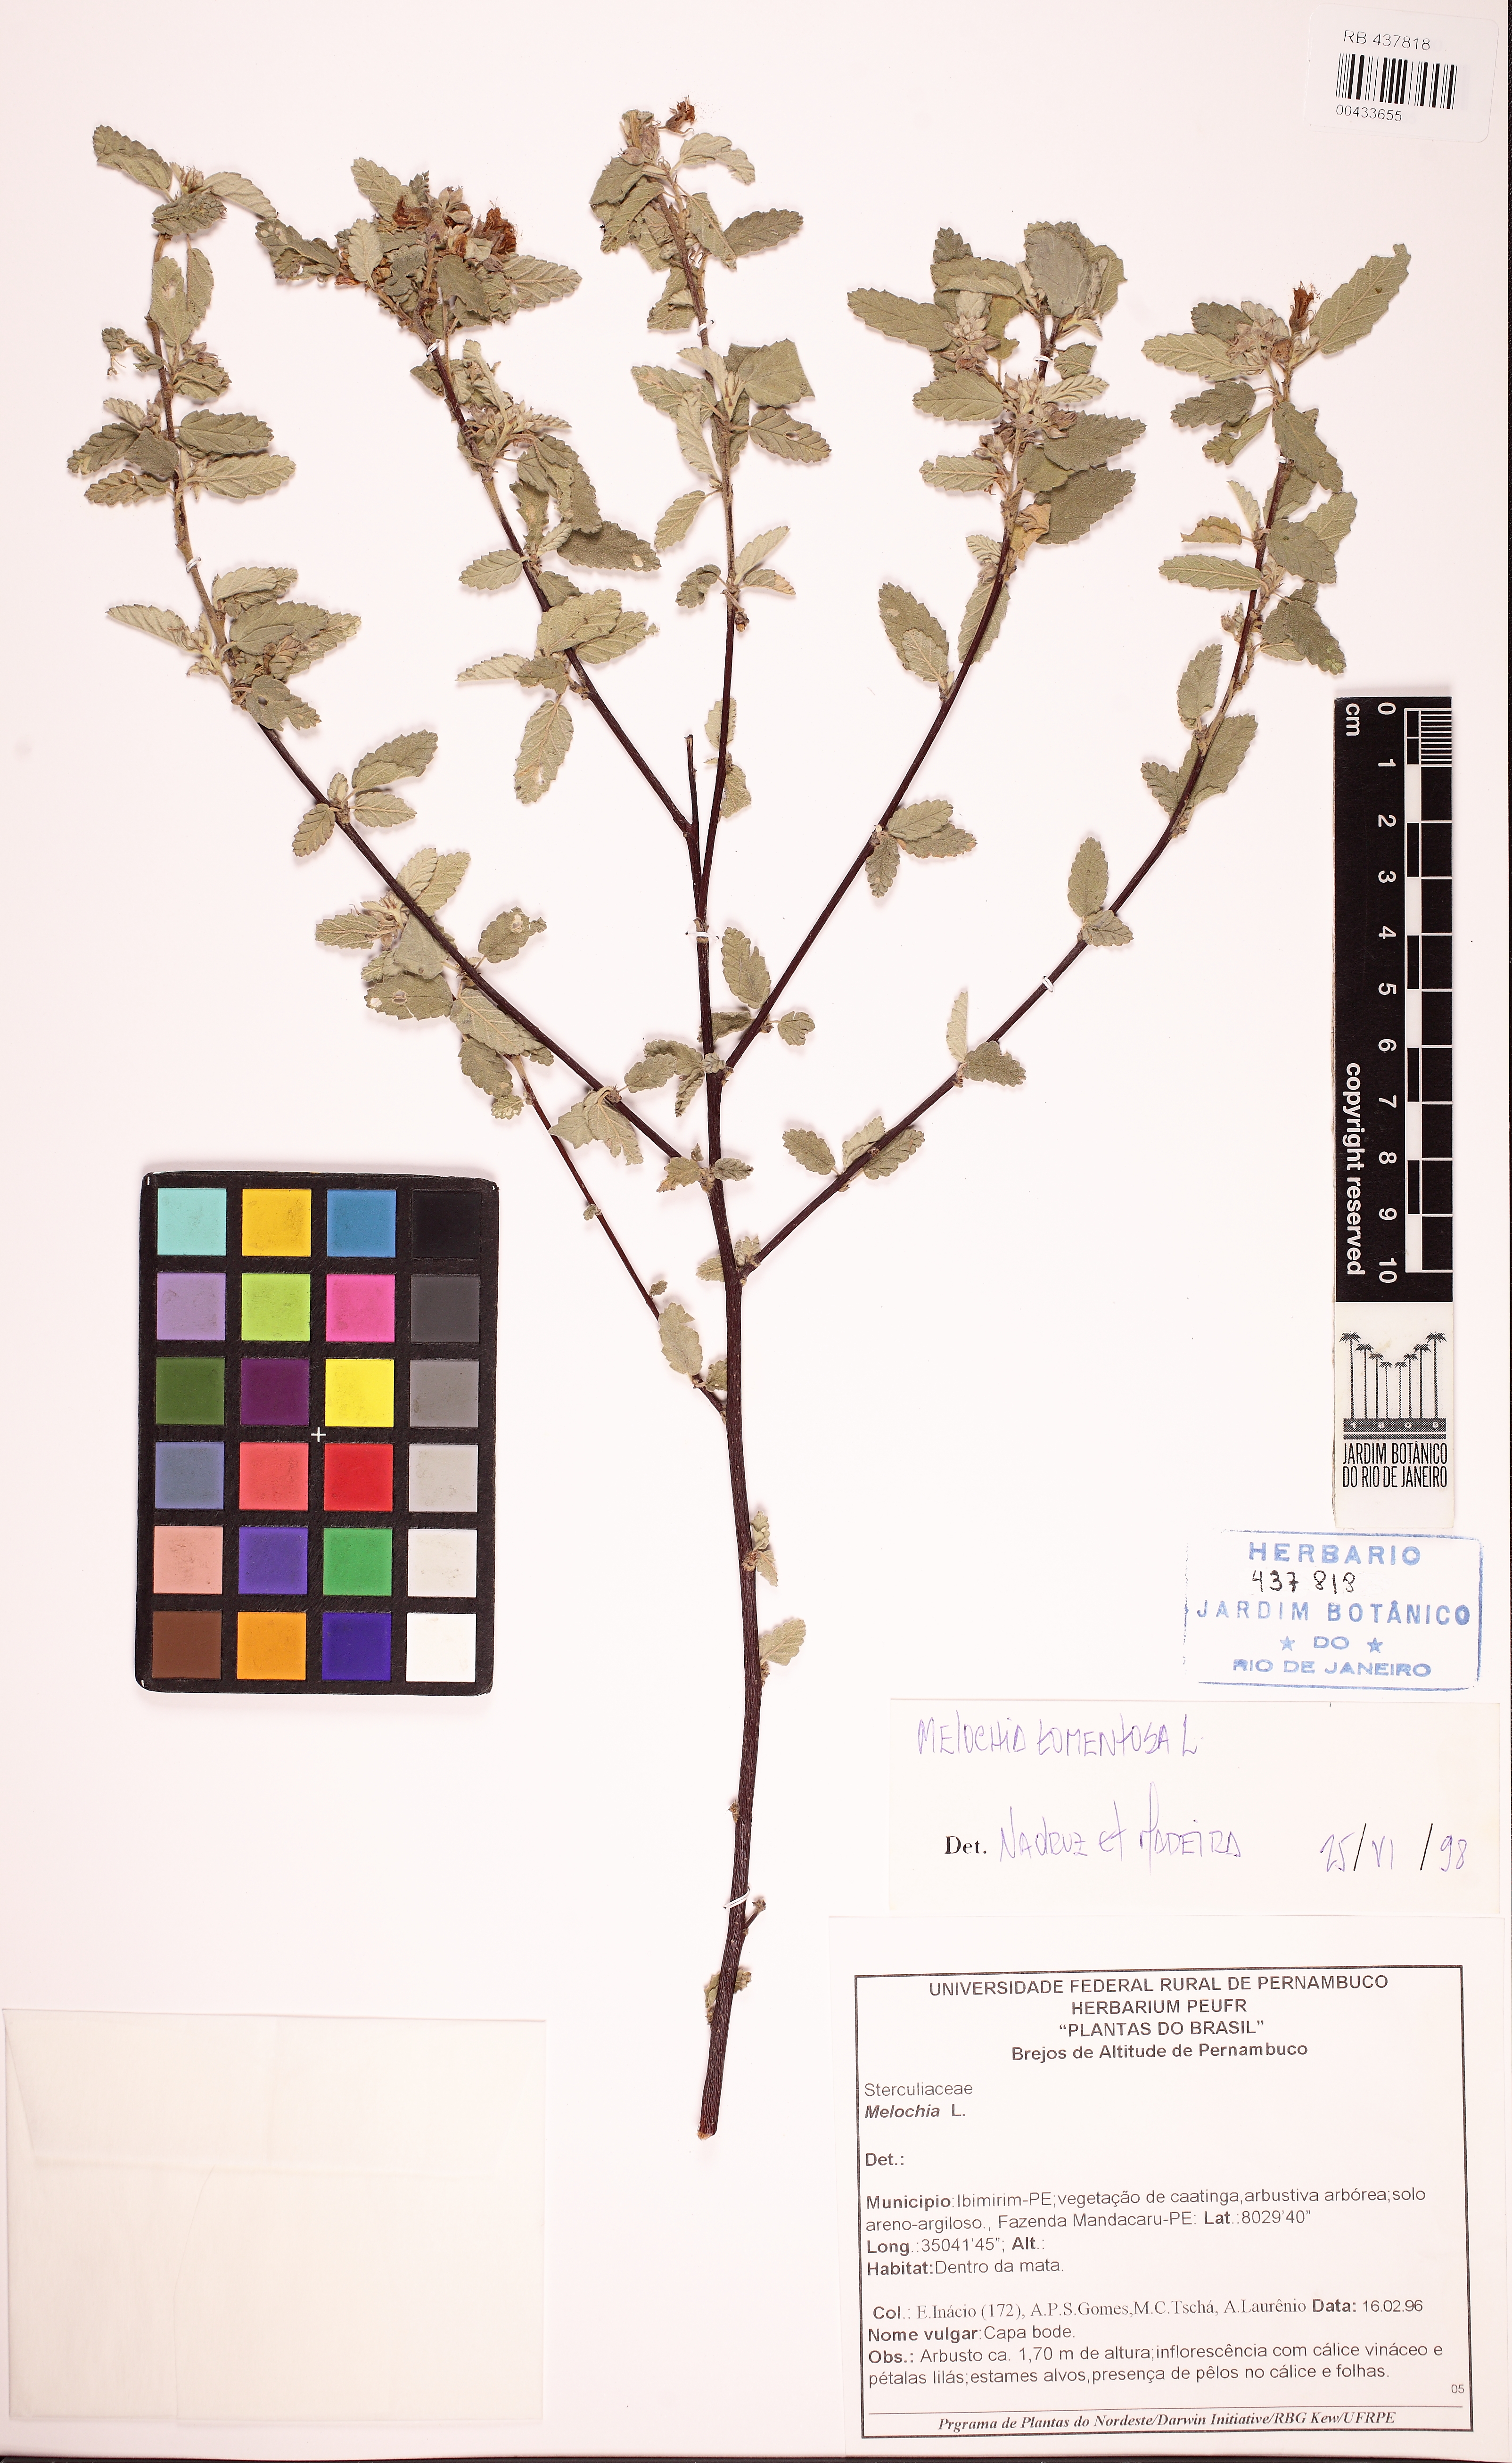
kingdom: Plantae
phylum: Tracheophyta
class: Magnoliopsida
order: Malvales
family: Malvaceae
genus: Melochia
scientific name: Melochia
